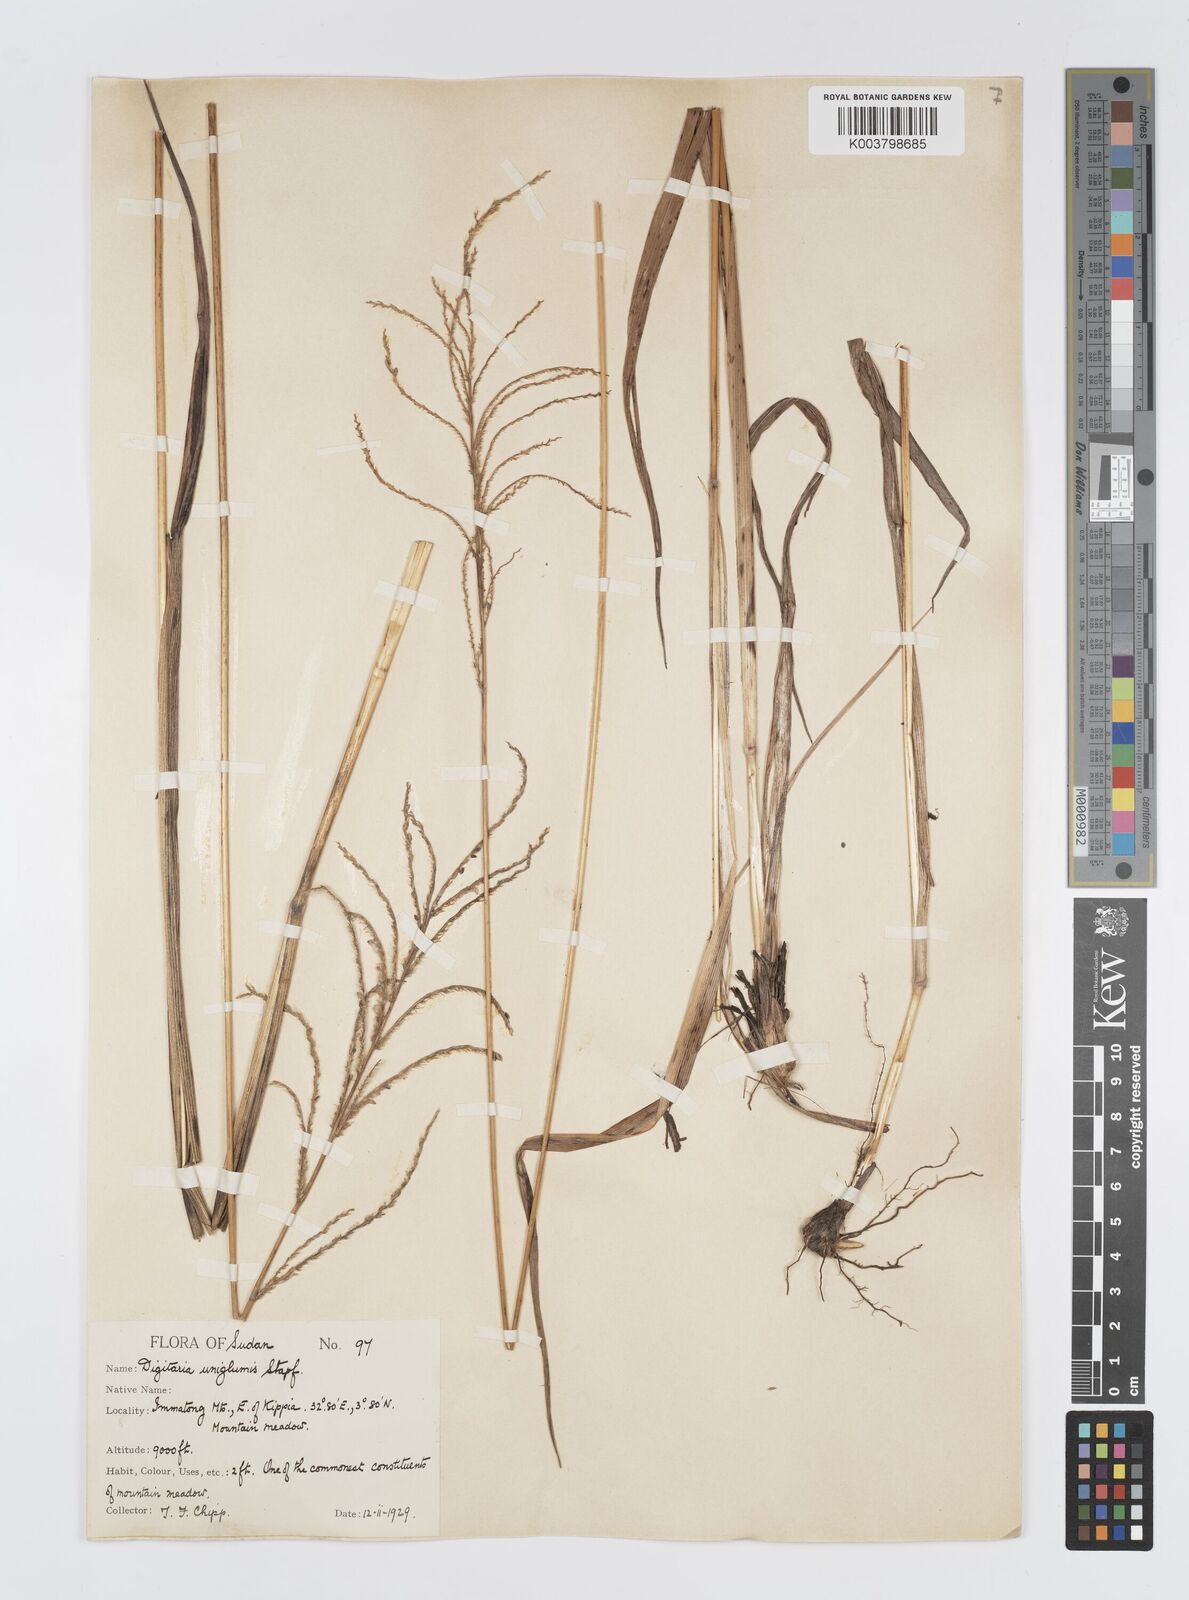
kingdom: Plantae
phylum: Tracheophyta
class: Liliopsida
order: Poales
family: Poaceae
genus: Digitaria
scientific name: Digitaria diagonalis
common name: Brown-seed finger grass
